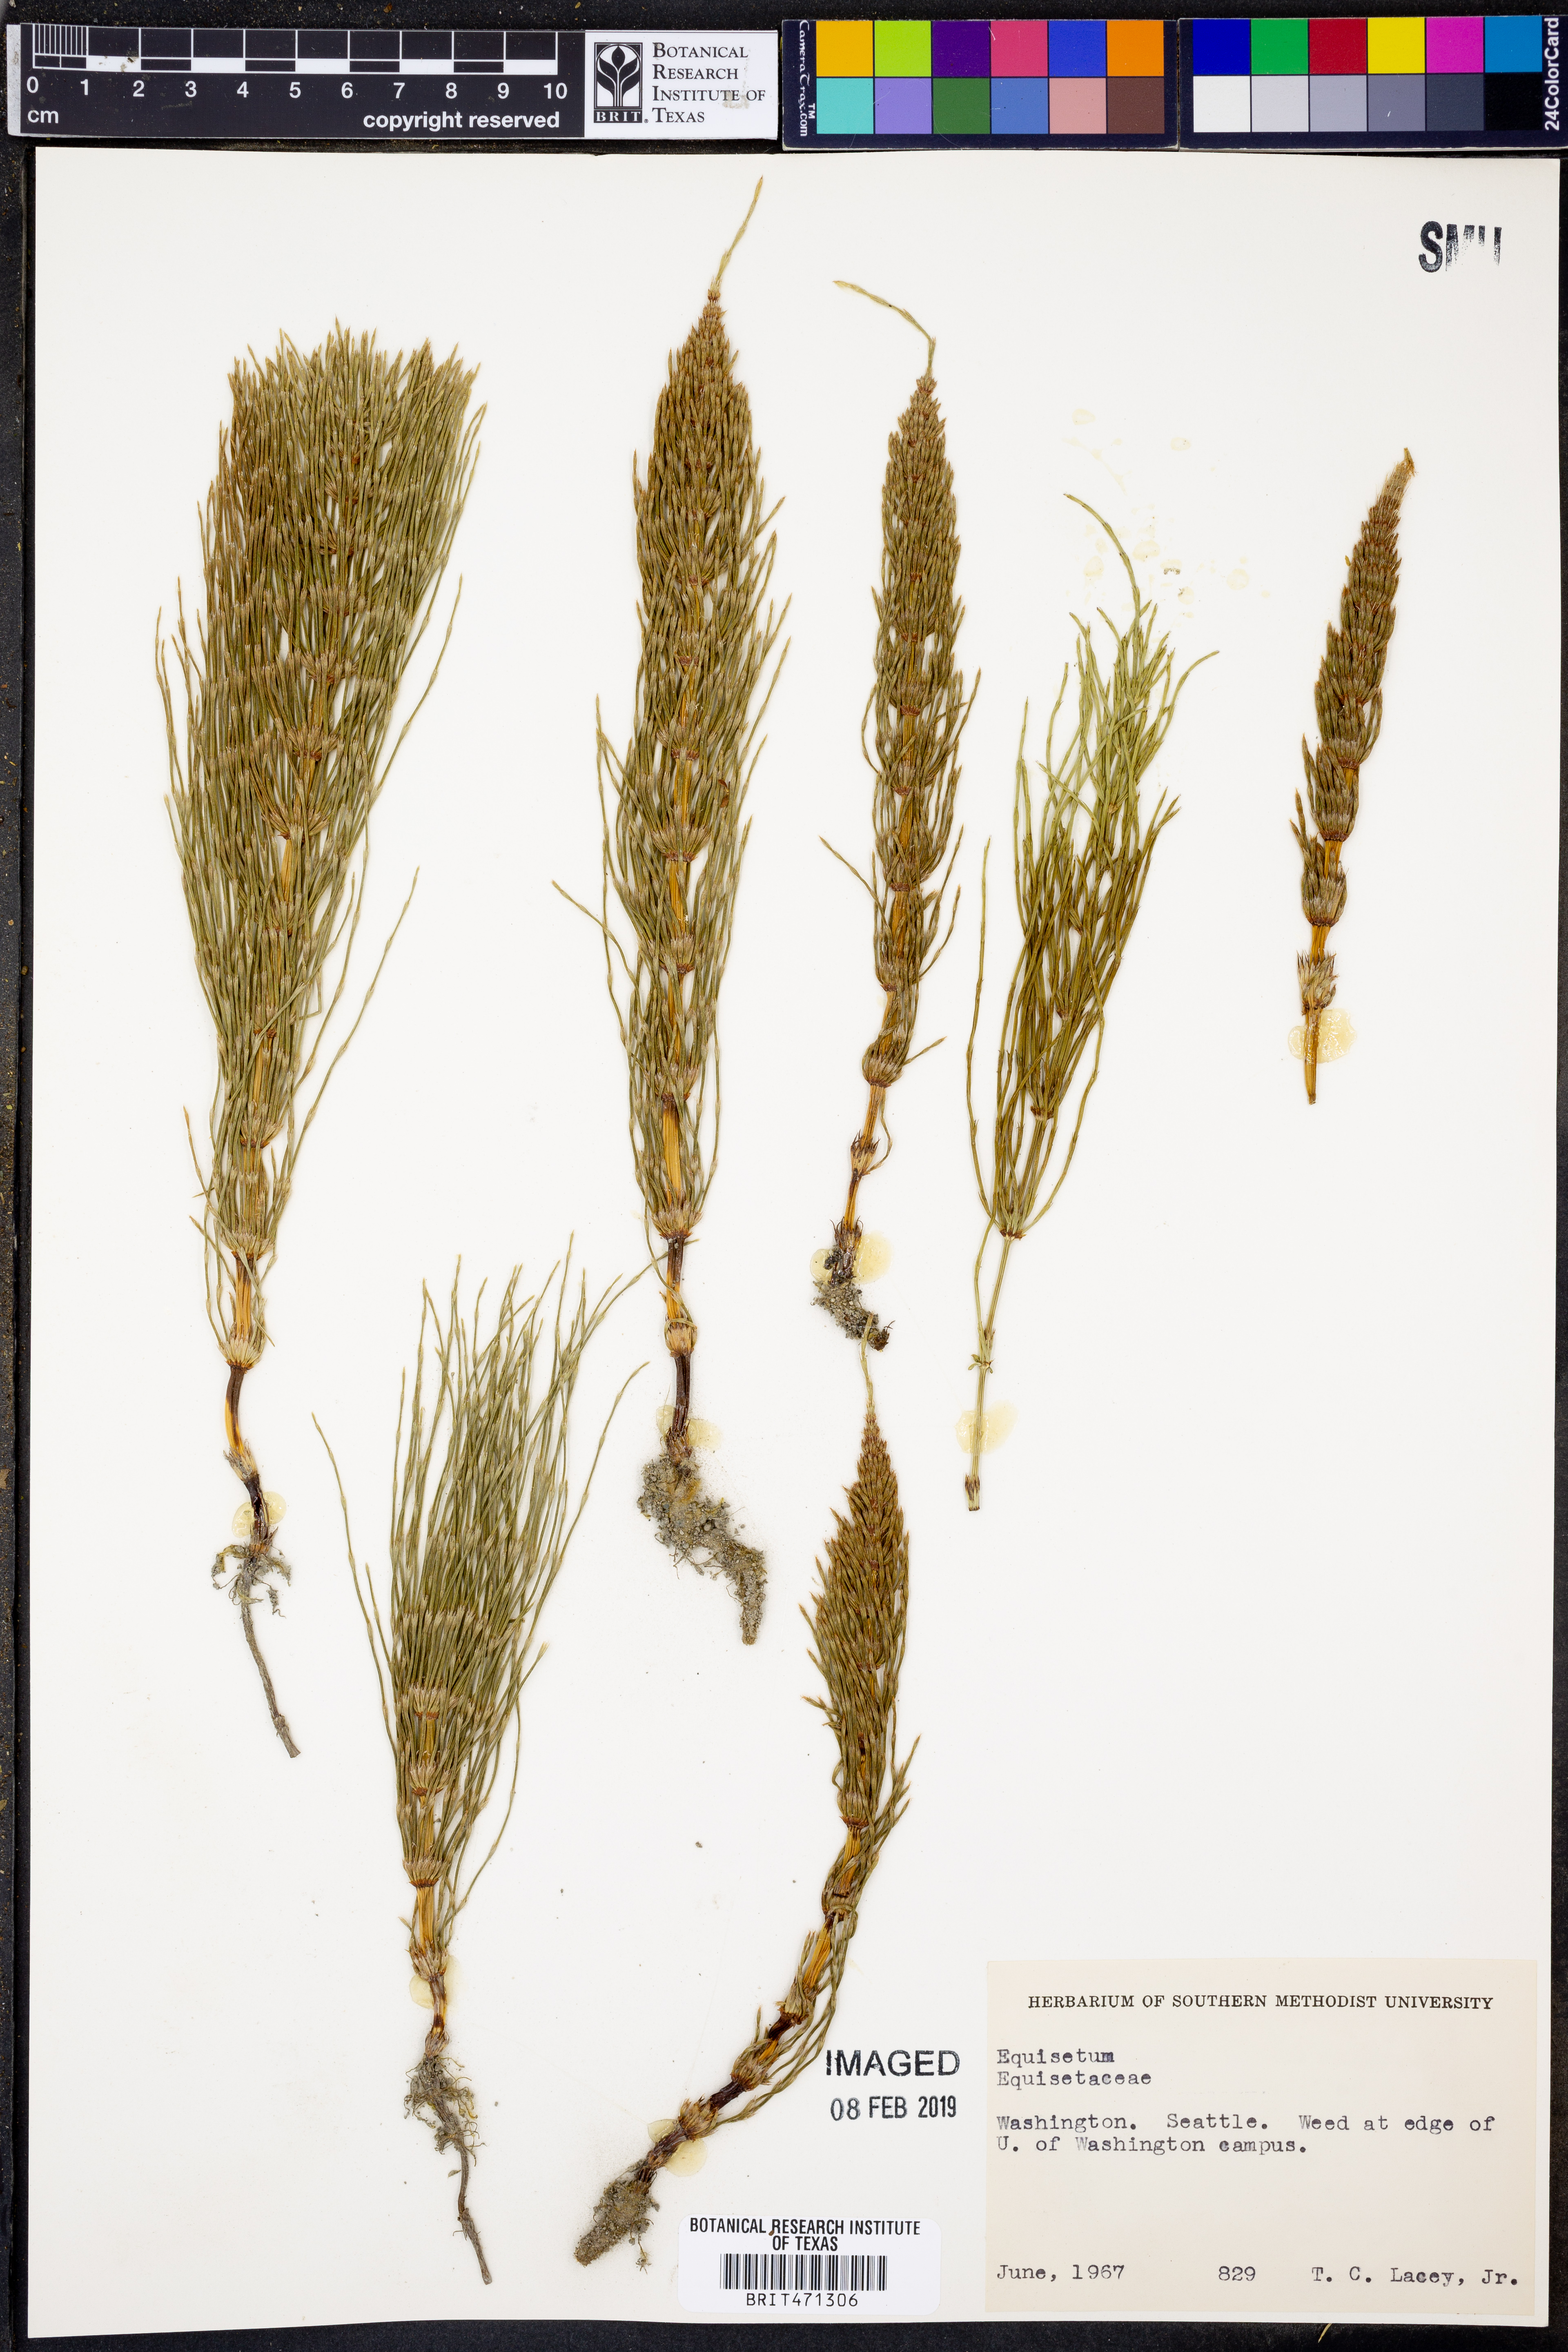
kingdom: Plantae
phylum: Tracheophyta
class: Polypodiopsida
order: Equisetales
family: Equisetaceae
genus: Equisetum
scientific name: Equisetum
